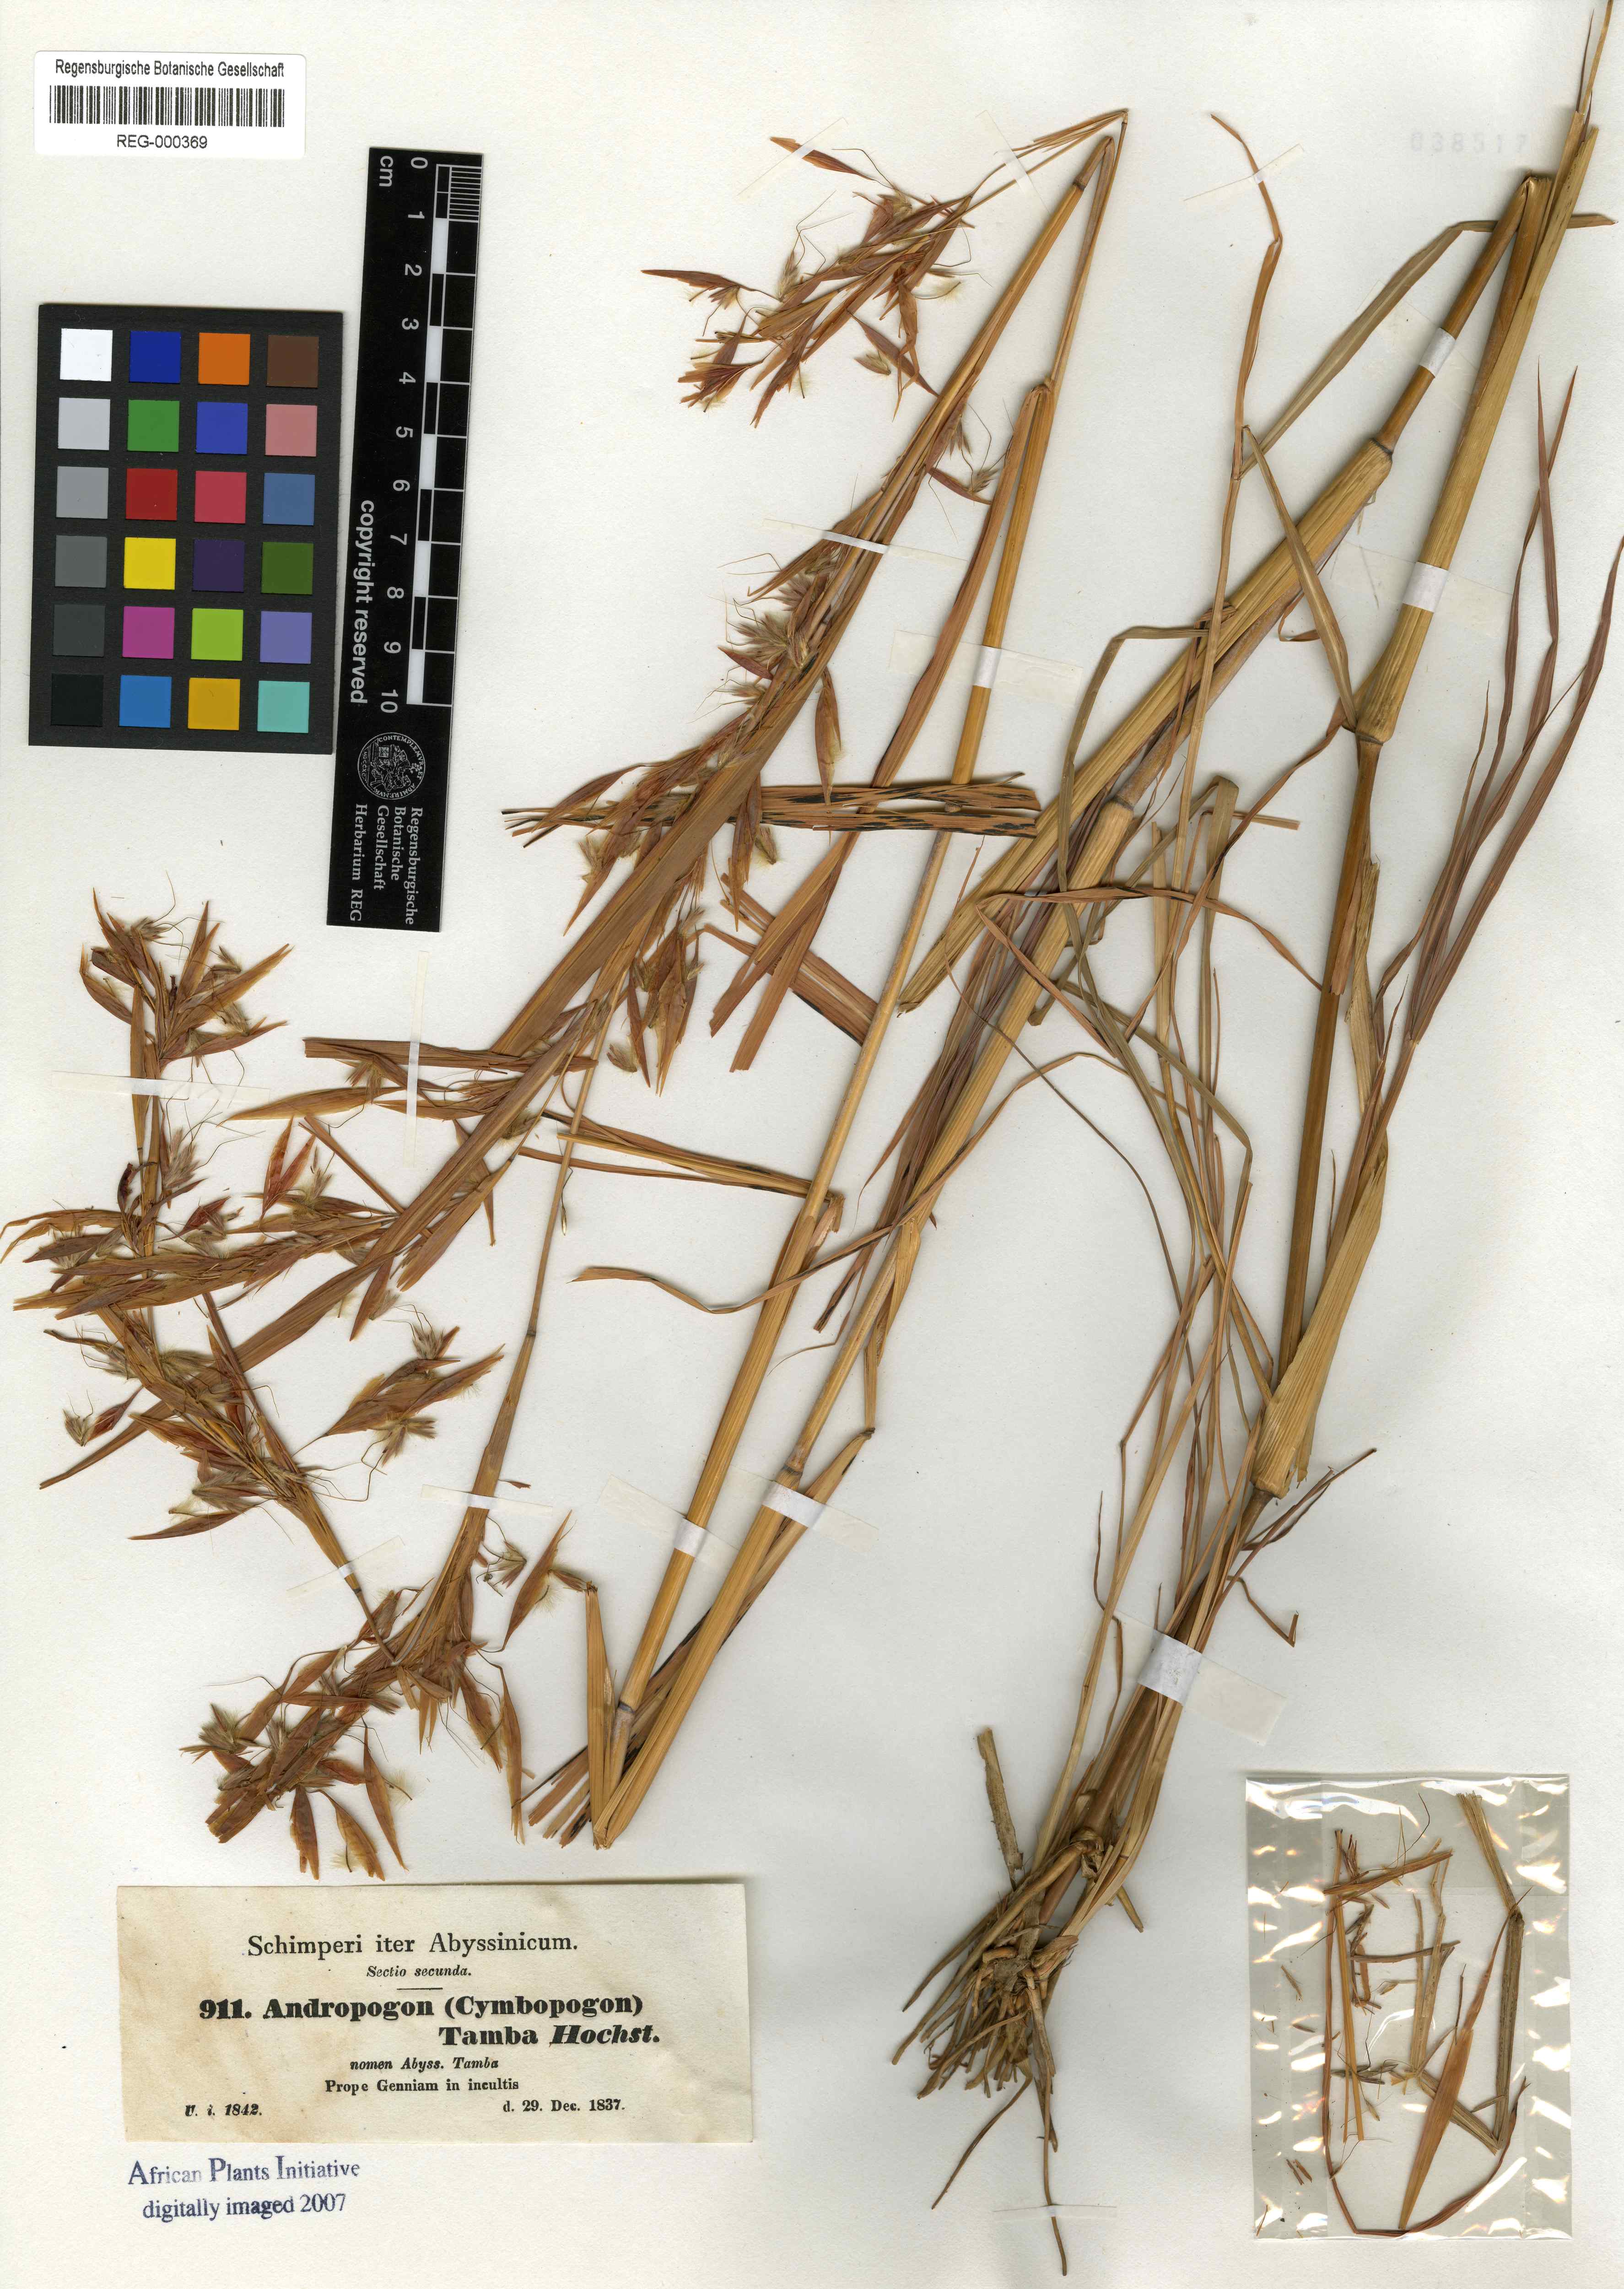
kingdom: Plantae
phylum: Tracheophyta
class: Liliopsida
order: Poales
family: Poaceae
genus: Hyparrhenia
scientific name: Hyparrhenia tamba
